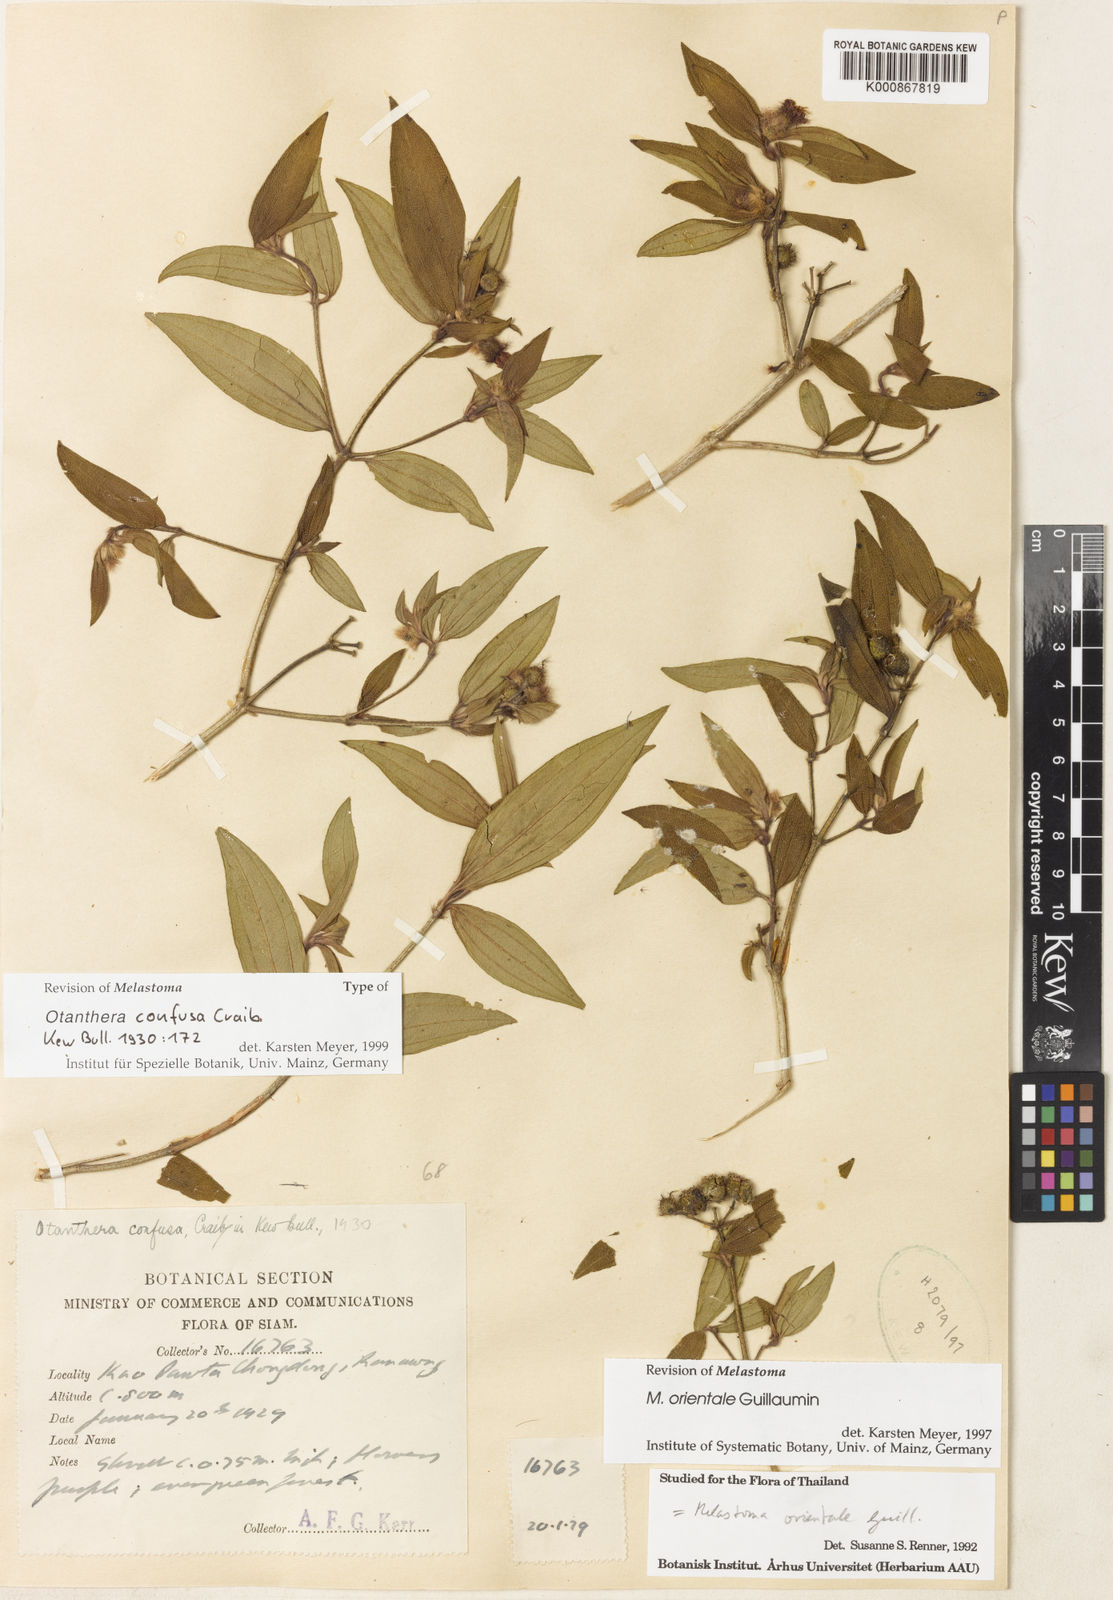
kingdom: Plantae
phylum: Tracheophyta
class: Magnoliopsida
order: Myrtales
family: Melastomataceae
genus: Melastoma
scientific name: Melastoma orientale
